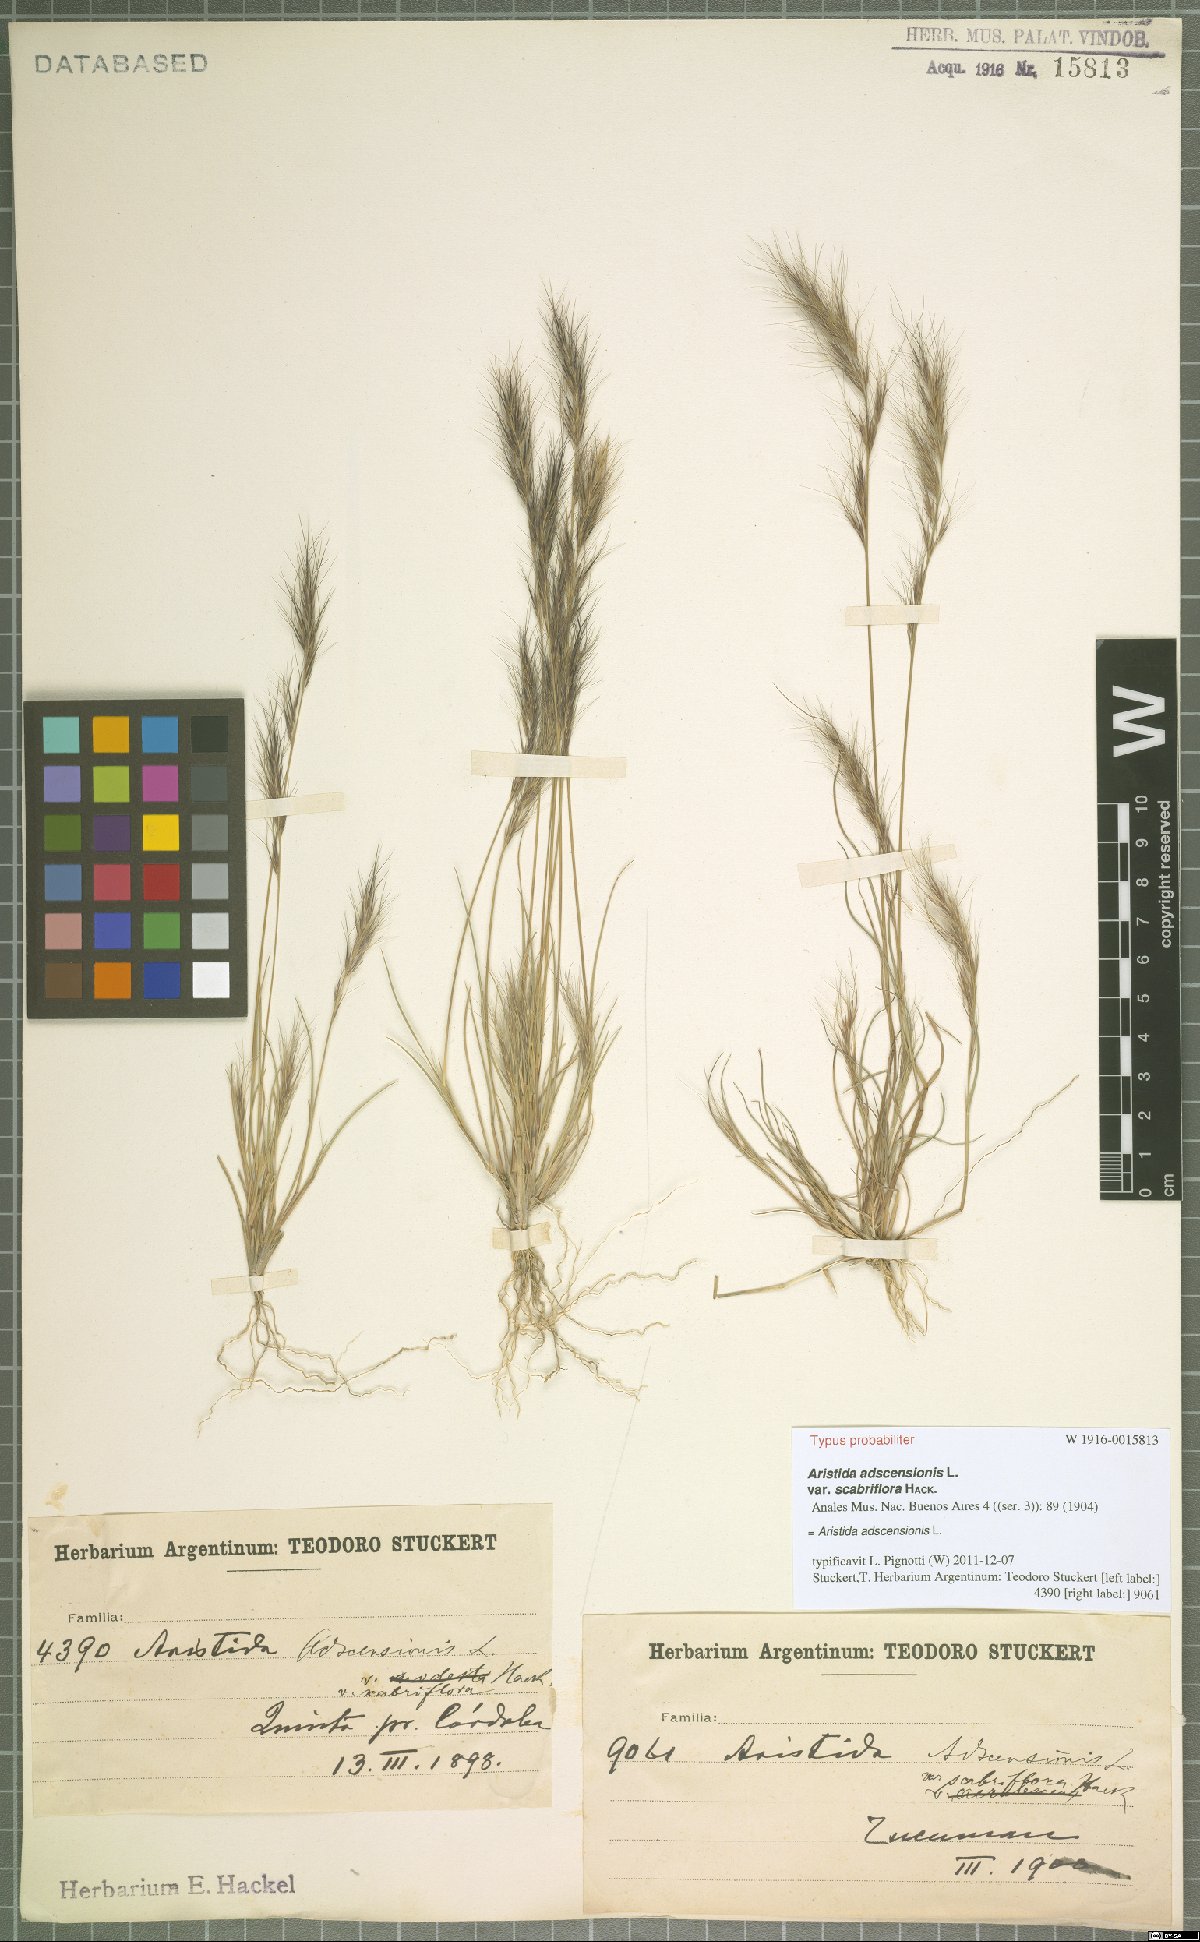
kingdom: Plantae
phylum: Tracheophyta
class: Liliopsida
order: Poales
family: Poaceae
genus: Aristida
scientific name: Aristida adscensionis
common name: Sixweeks threeawn
